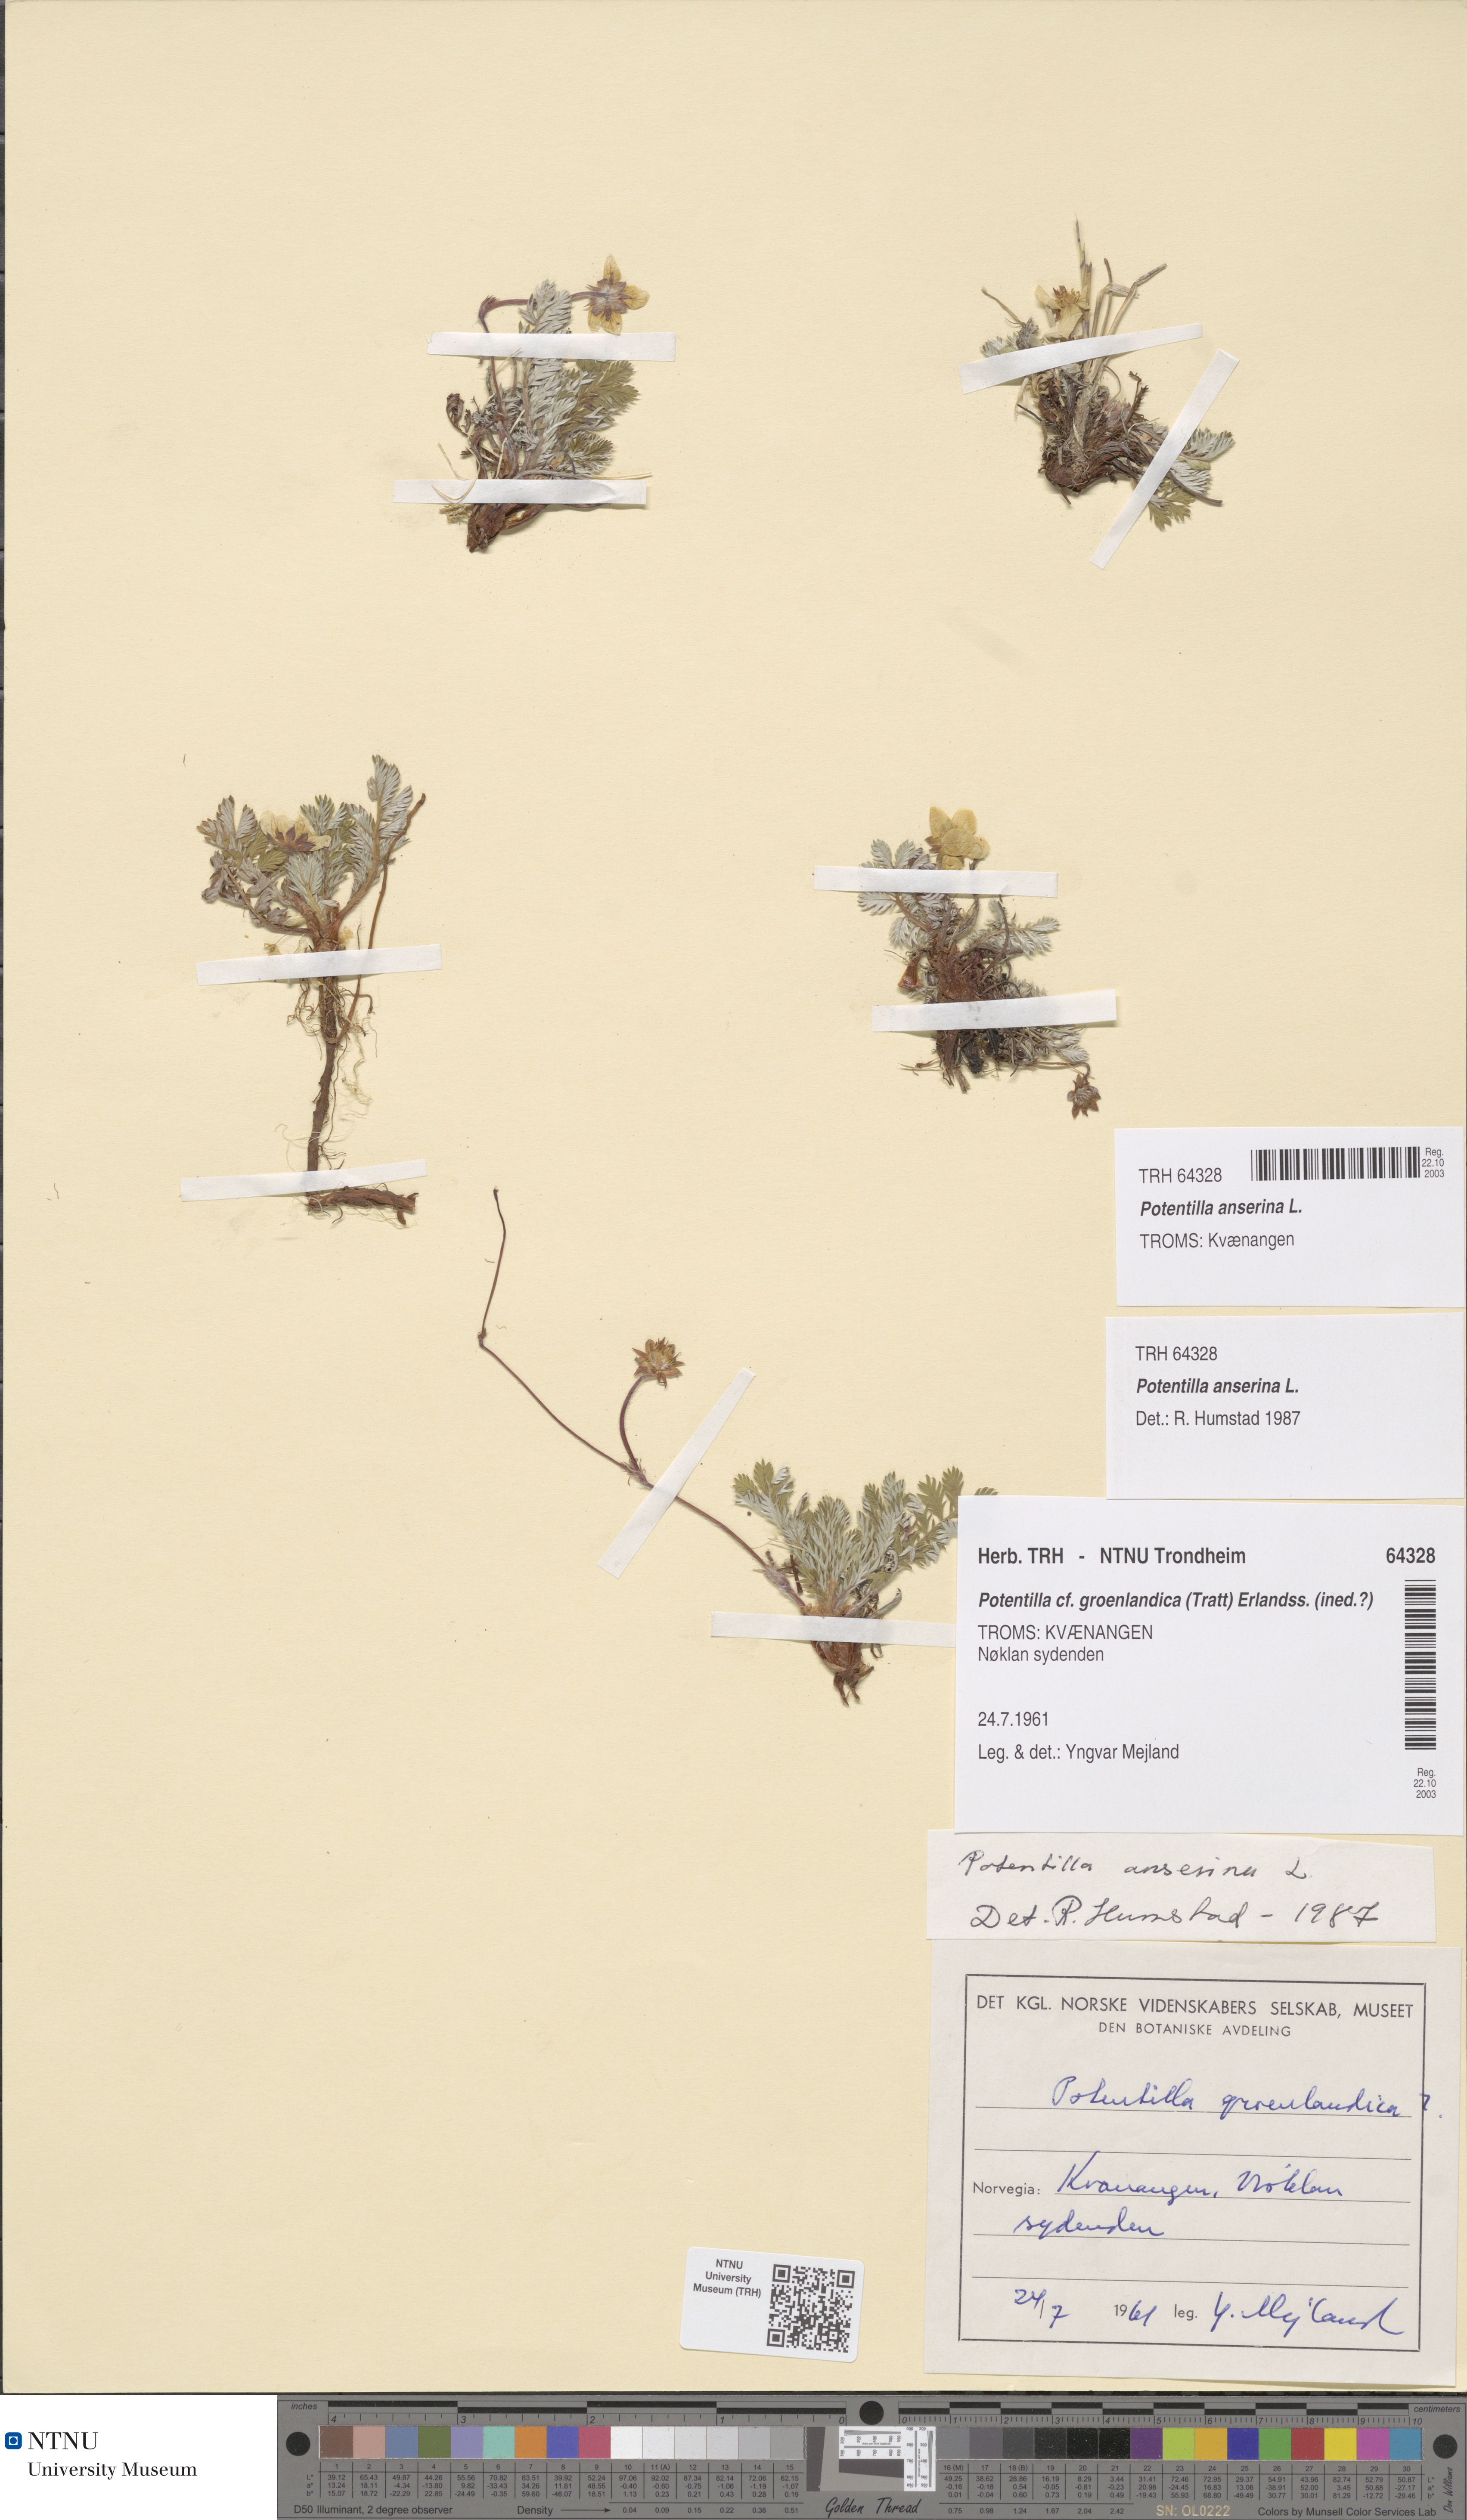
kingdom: Plantae
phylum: Tracheophyta
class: Magnoliopsida
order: Rosales
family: Rosaceae
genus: Argentina
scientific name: Argentina anserina
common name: Common silverweed
